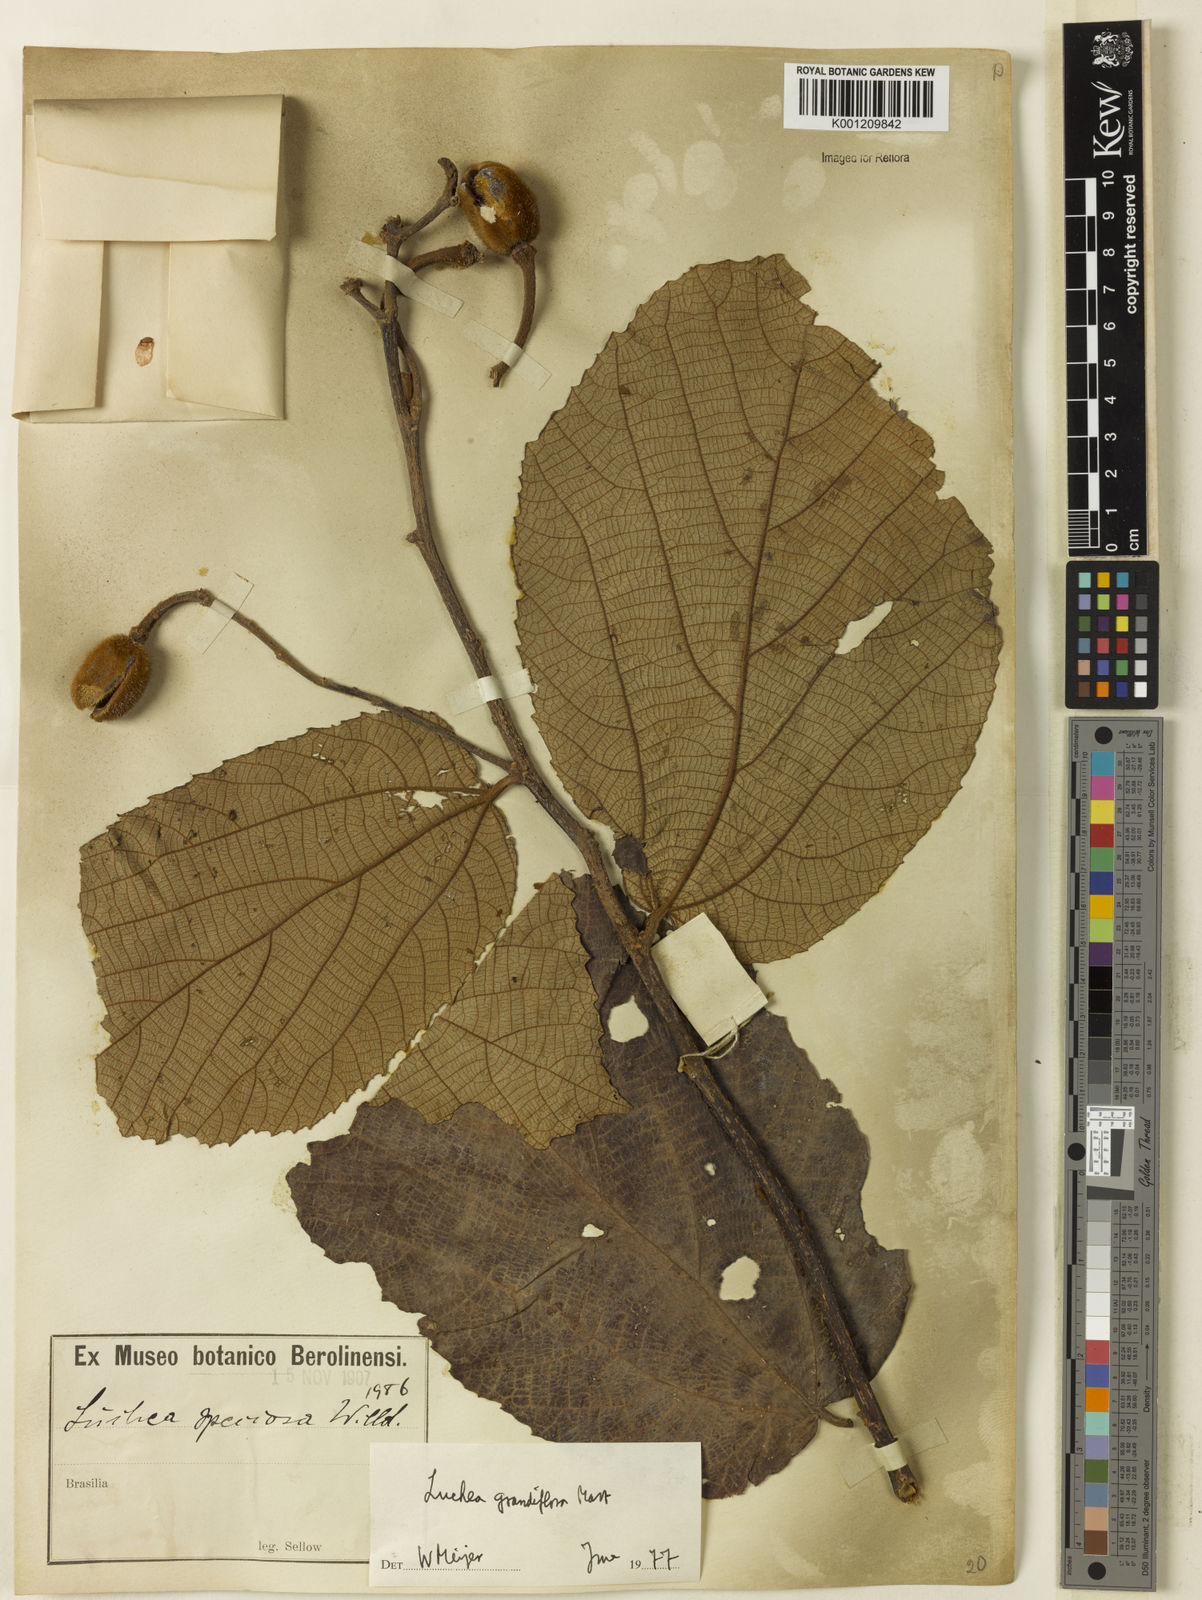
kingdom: Plantae
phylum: Tracheophyta
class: Magnoliopsida
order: Malvales
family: Malvaceae
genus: Luehea
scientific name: Luehea grandiflora
